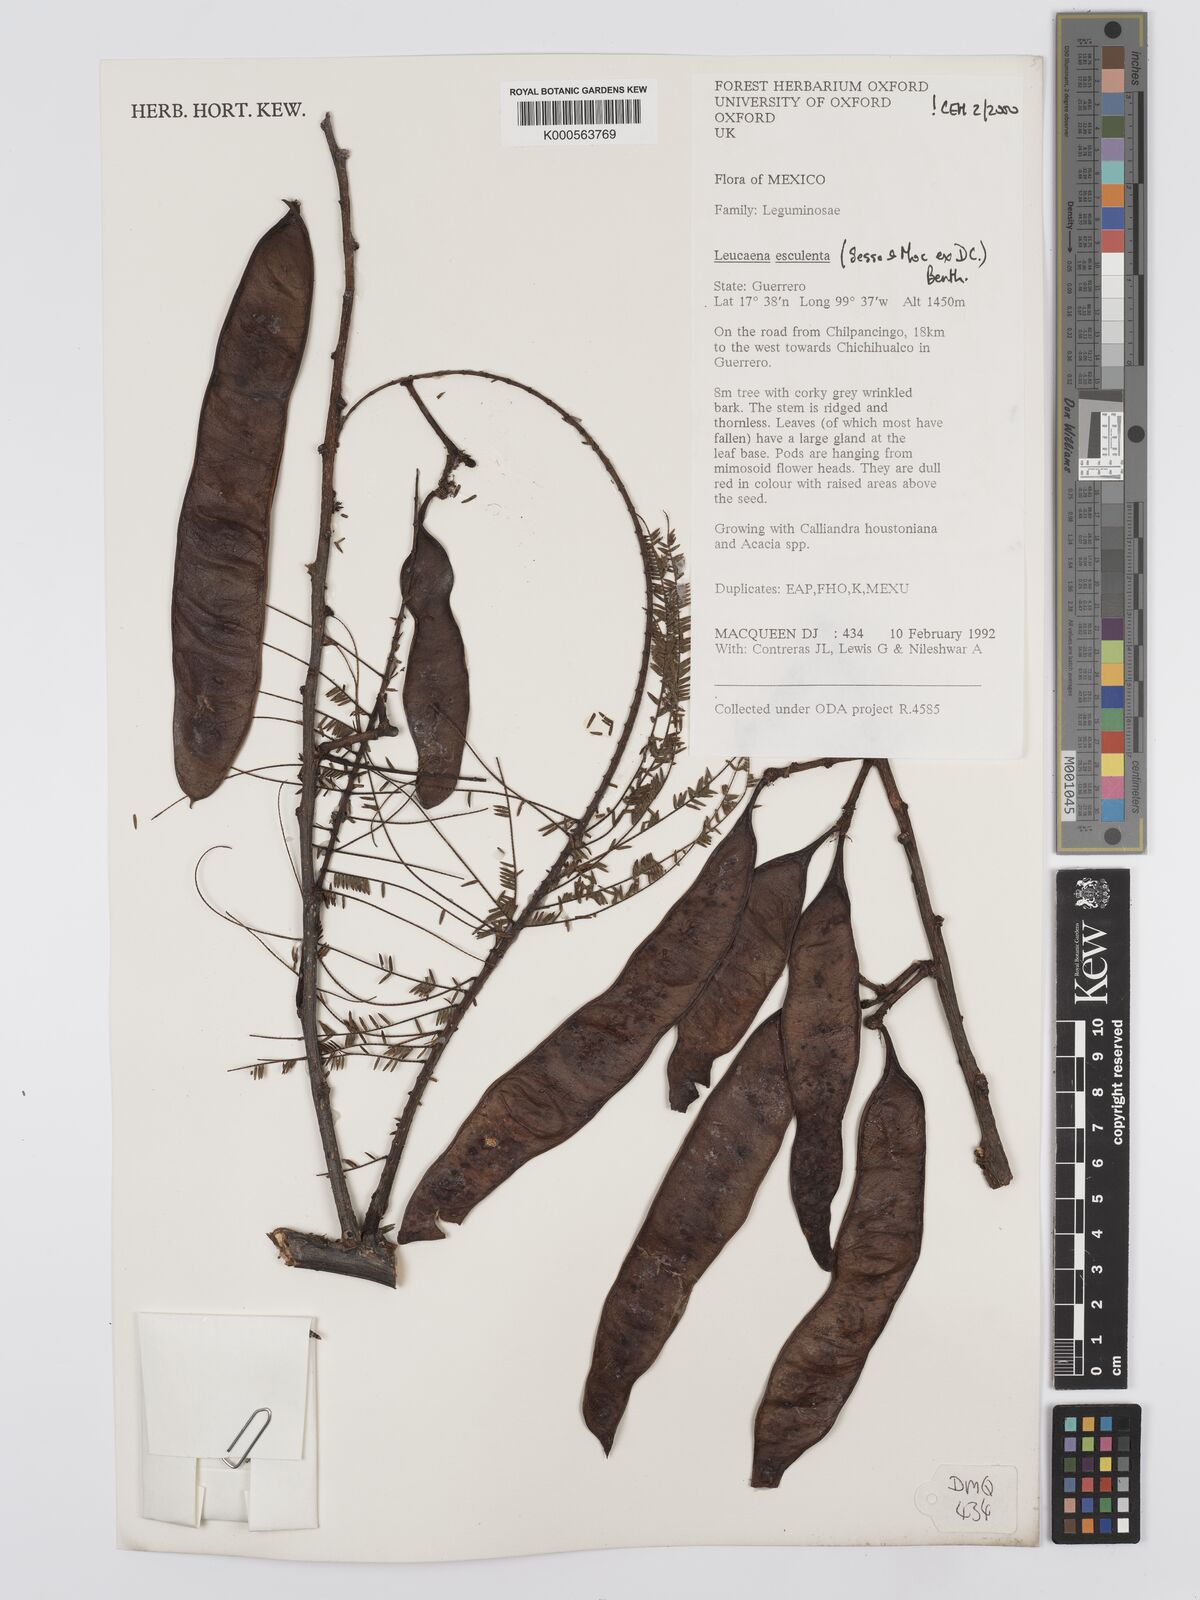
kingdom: Plantae
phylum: Tracheophyta
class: Magnoliopsida
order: Fabales
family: Fabaceae
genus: Leucaena
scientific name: Leucaena
